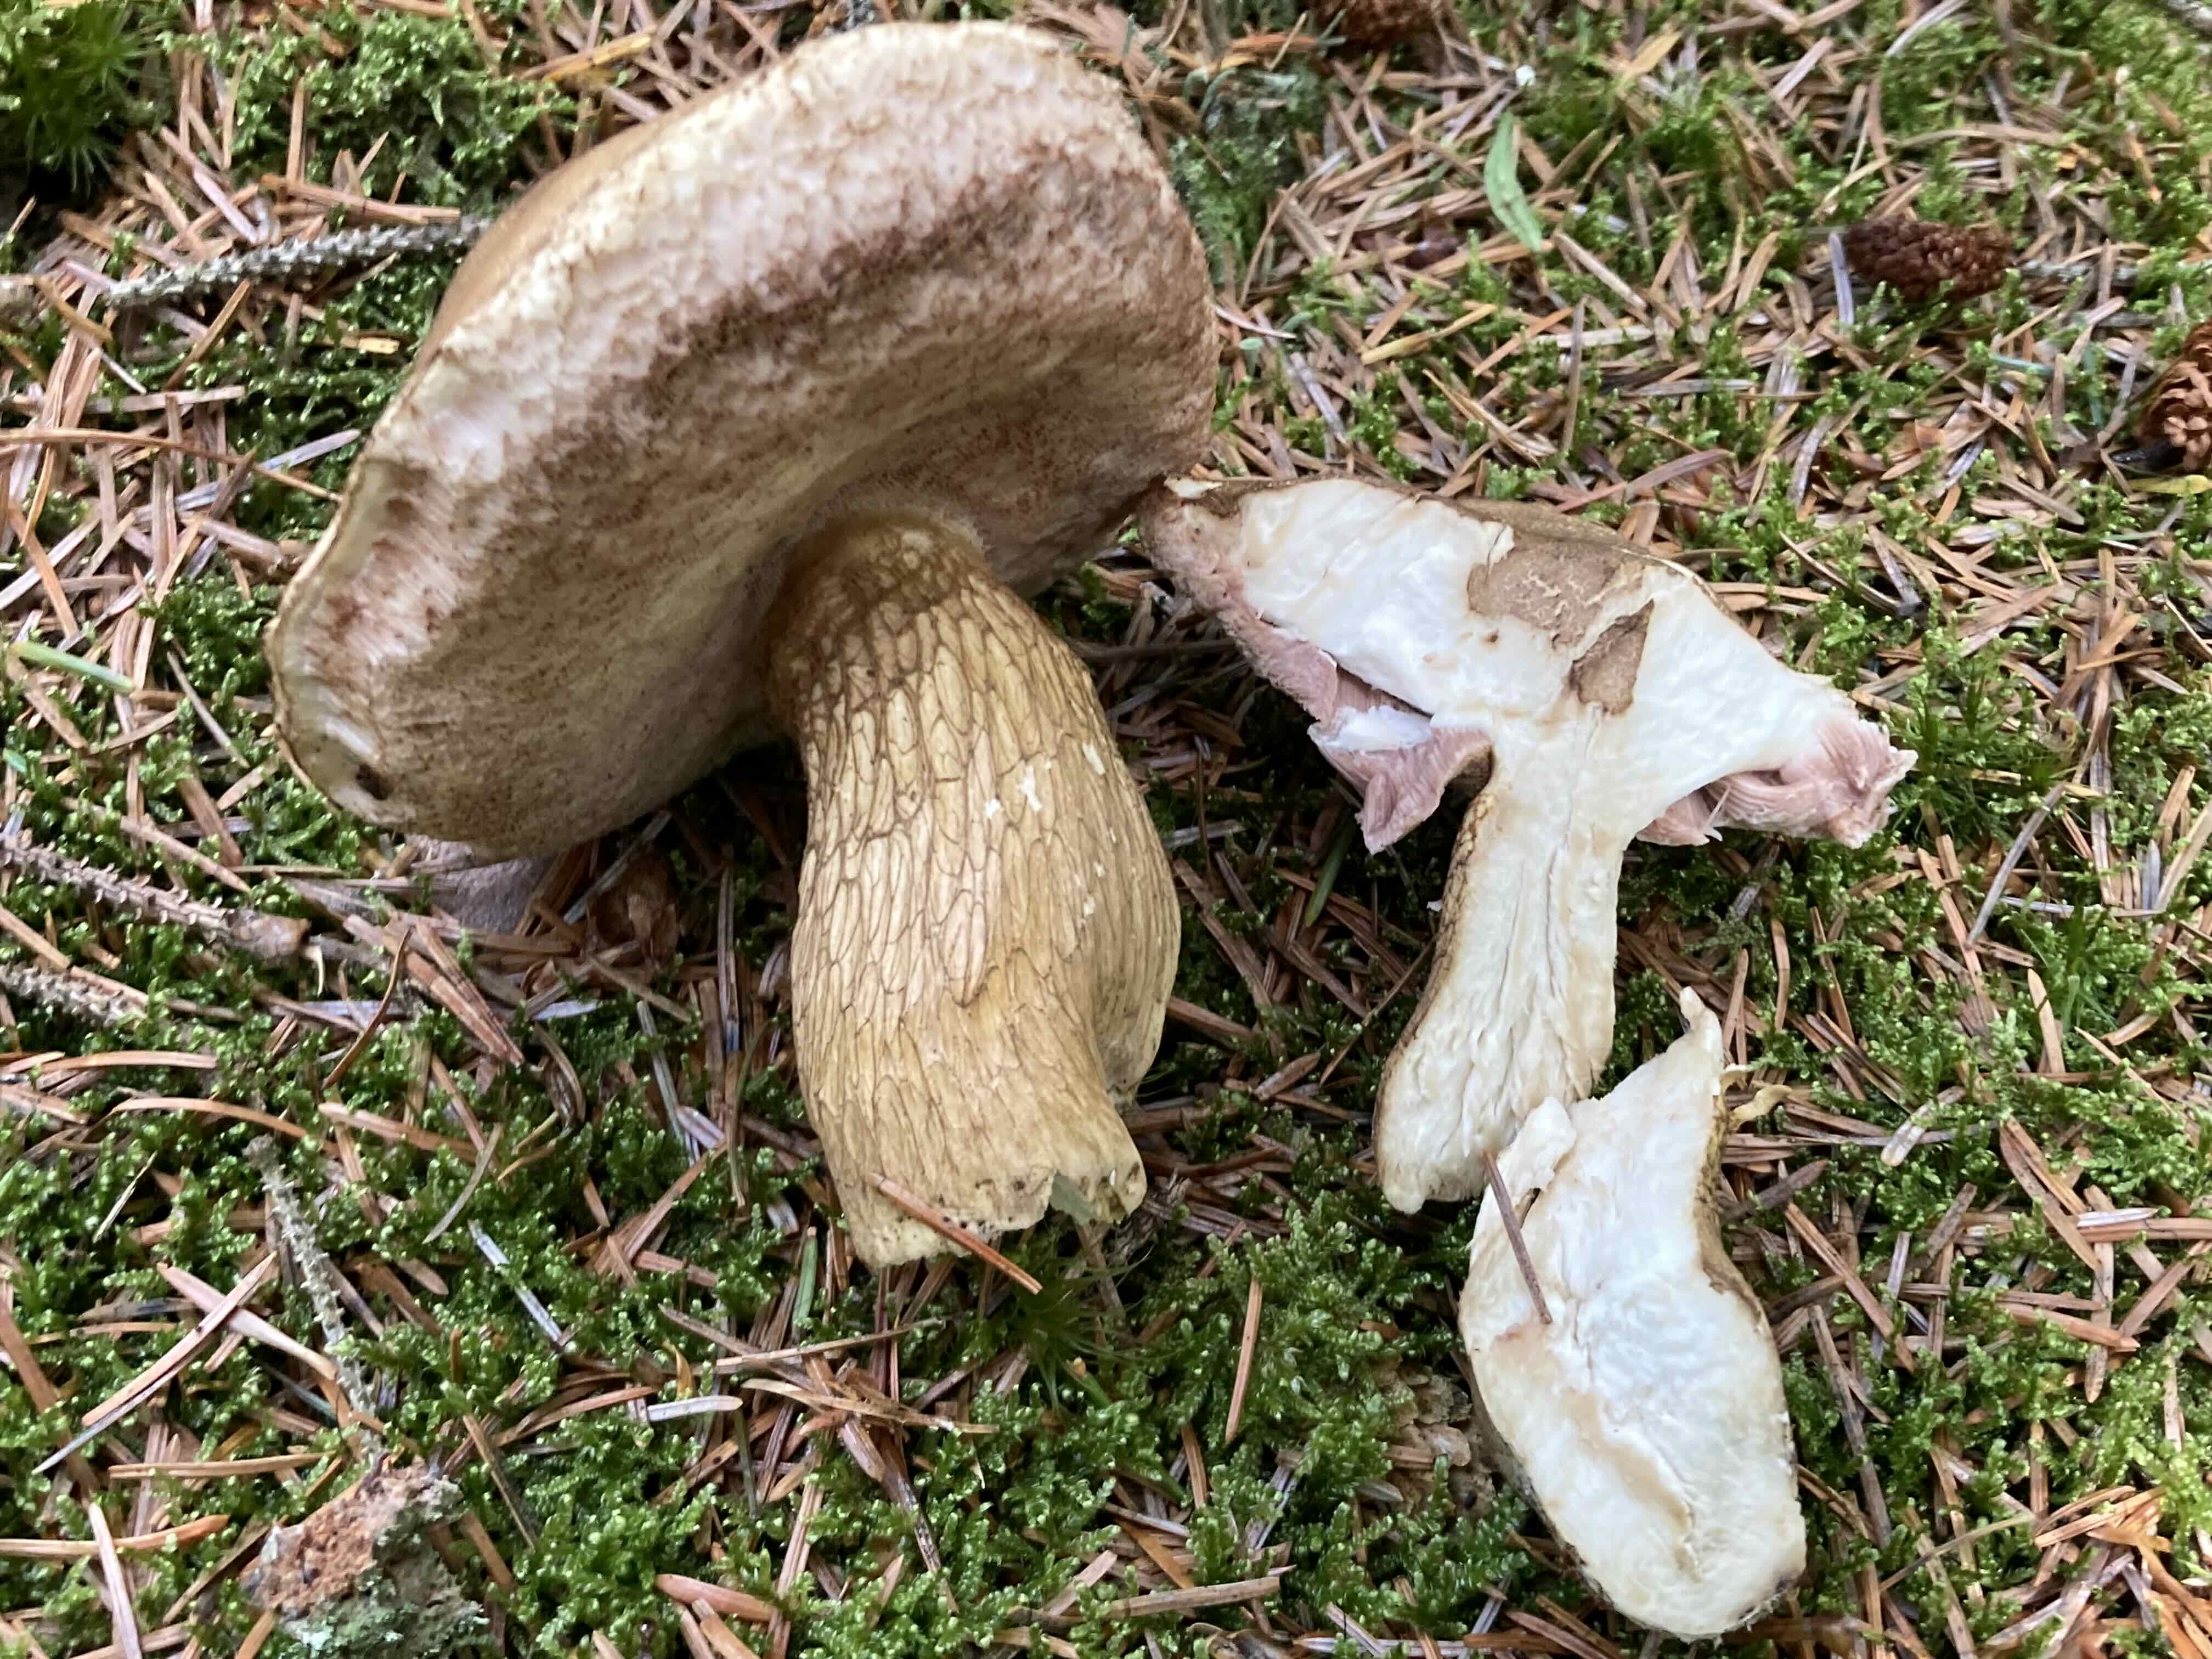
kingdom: Fungi
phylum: Basidiomycota
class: Agaricomycetes
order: Boletales
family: Boletaceae
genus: Tylopilus
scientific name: Tylopilus felleus
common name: galderørhat
